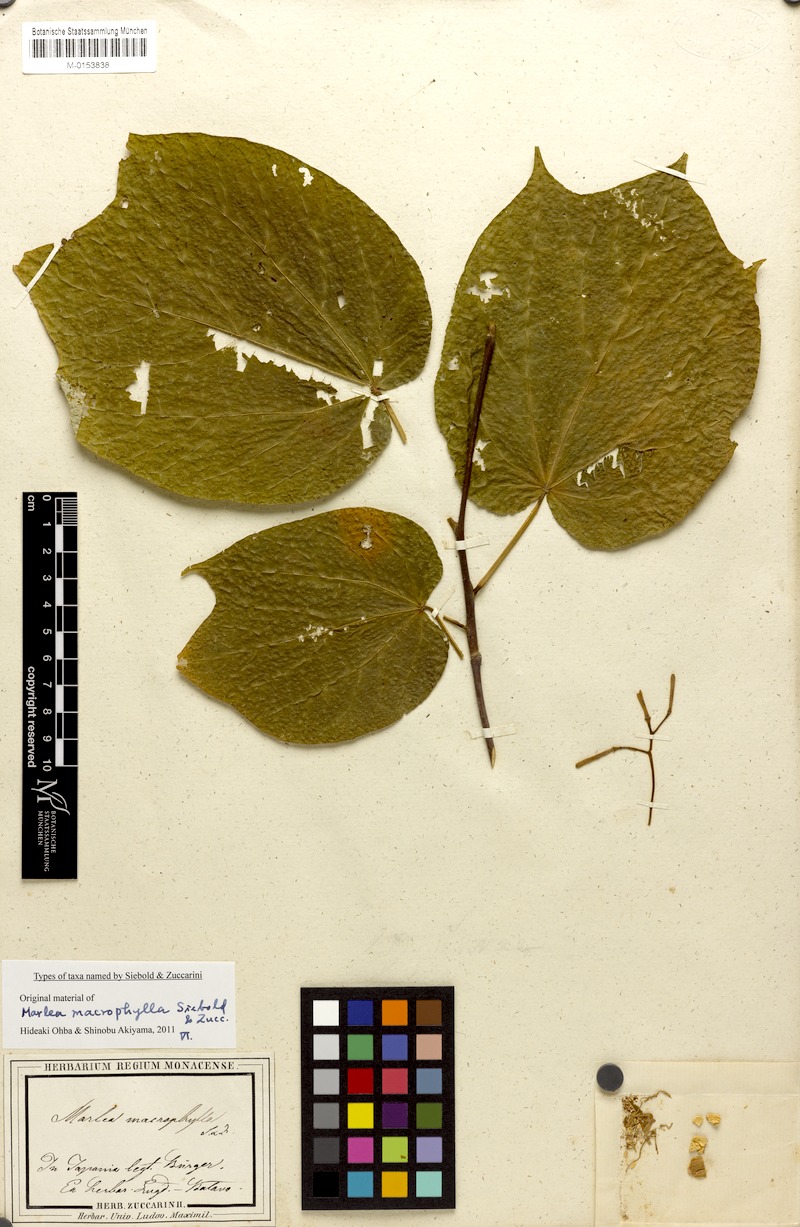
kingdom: Plantae
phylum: Tracheophyta
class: Magnoliopsida
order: Cornales
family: Cornaceae
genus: Alangium
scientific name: Alangium platanifolium
